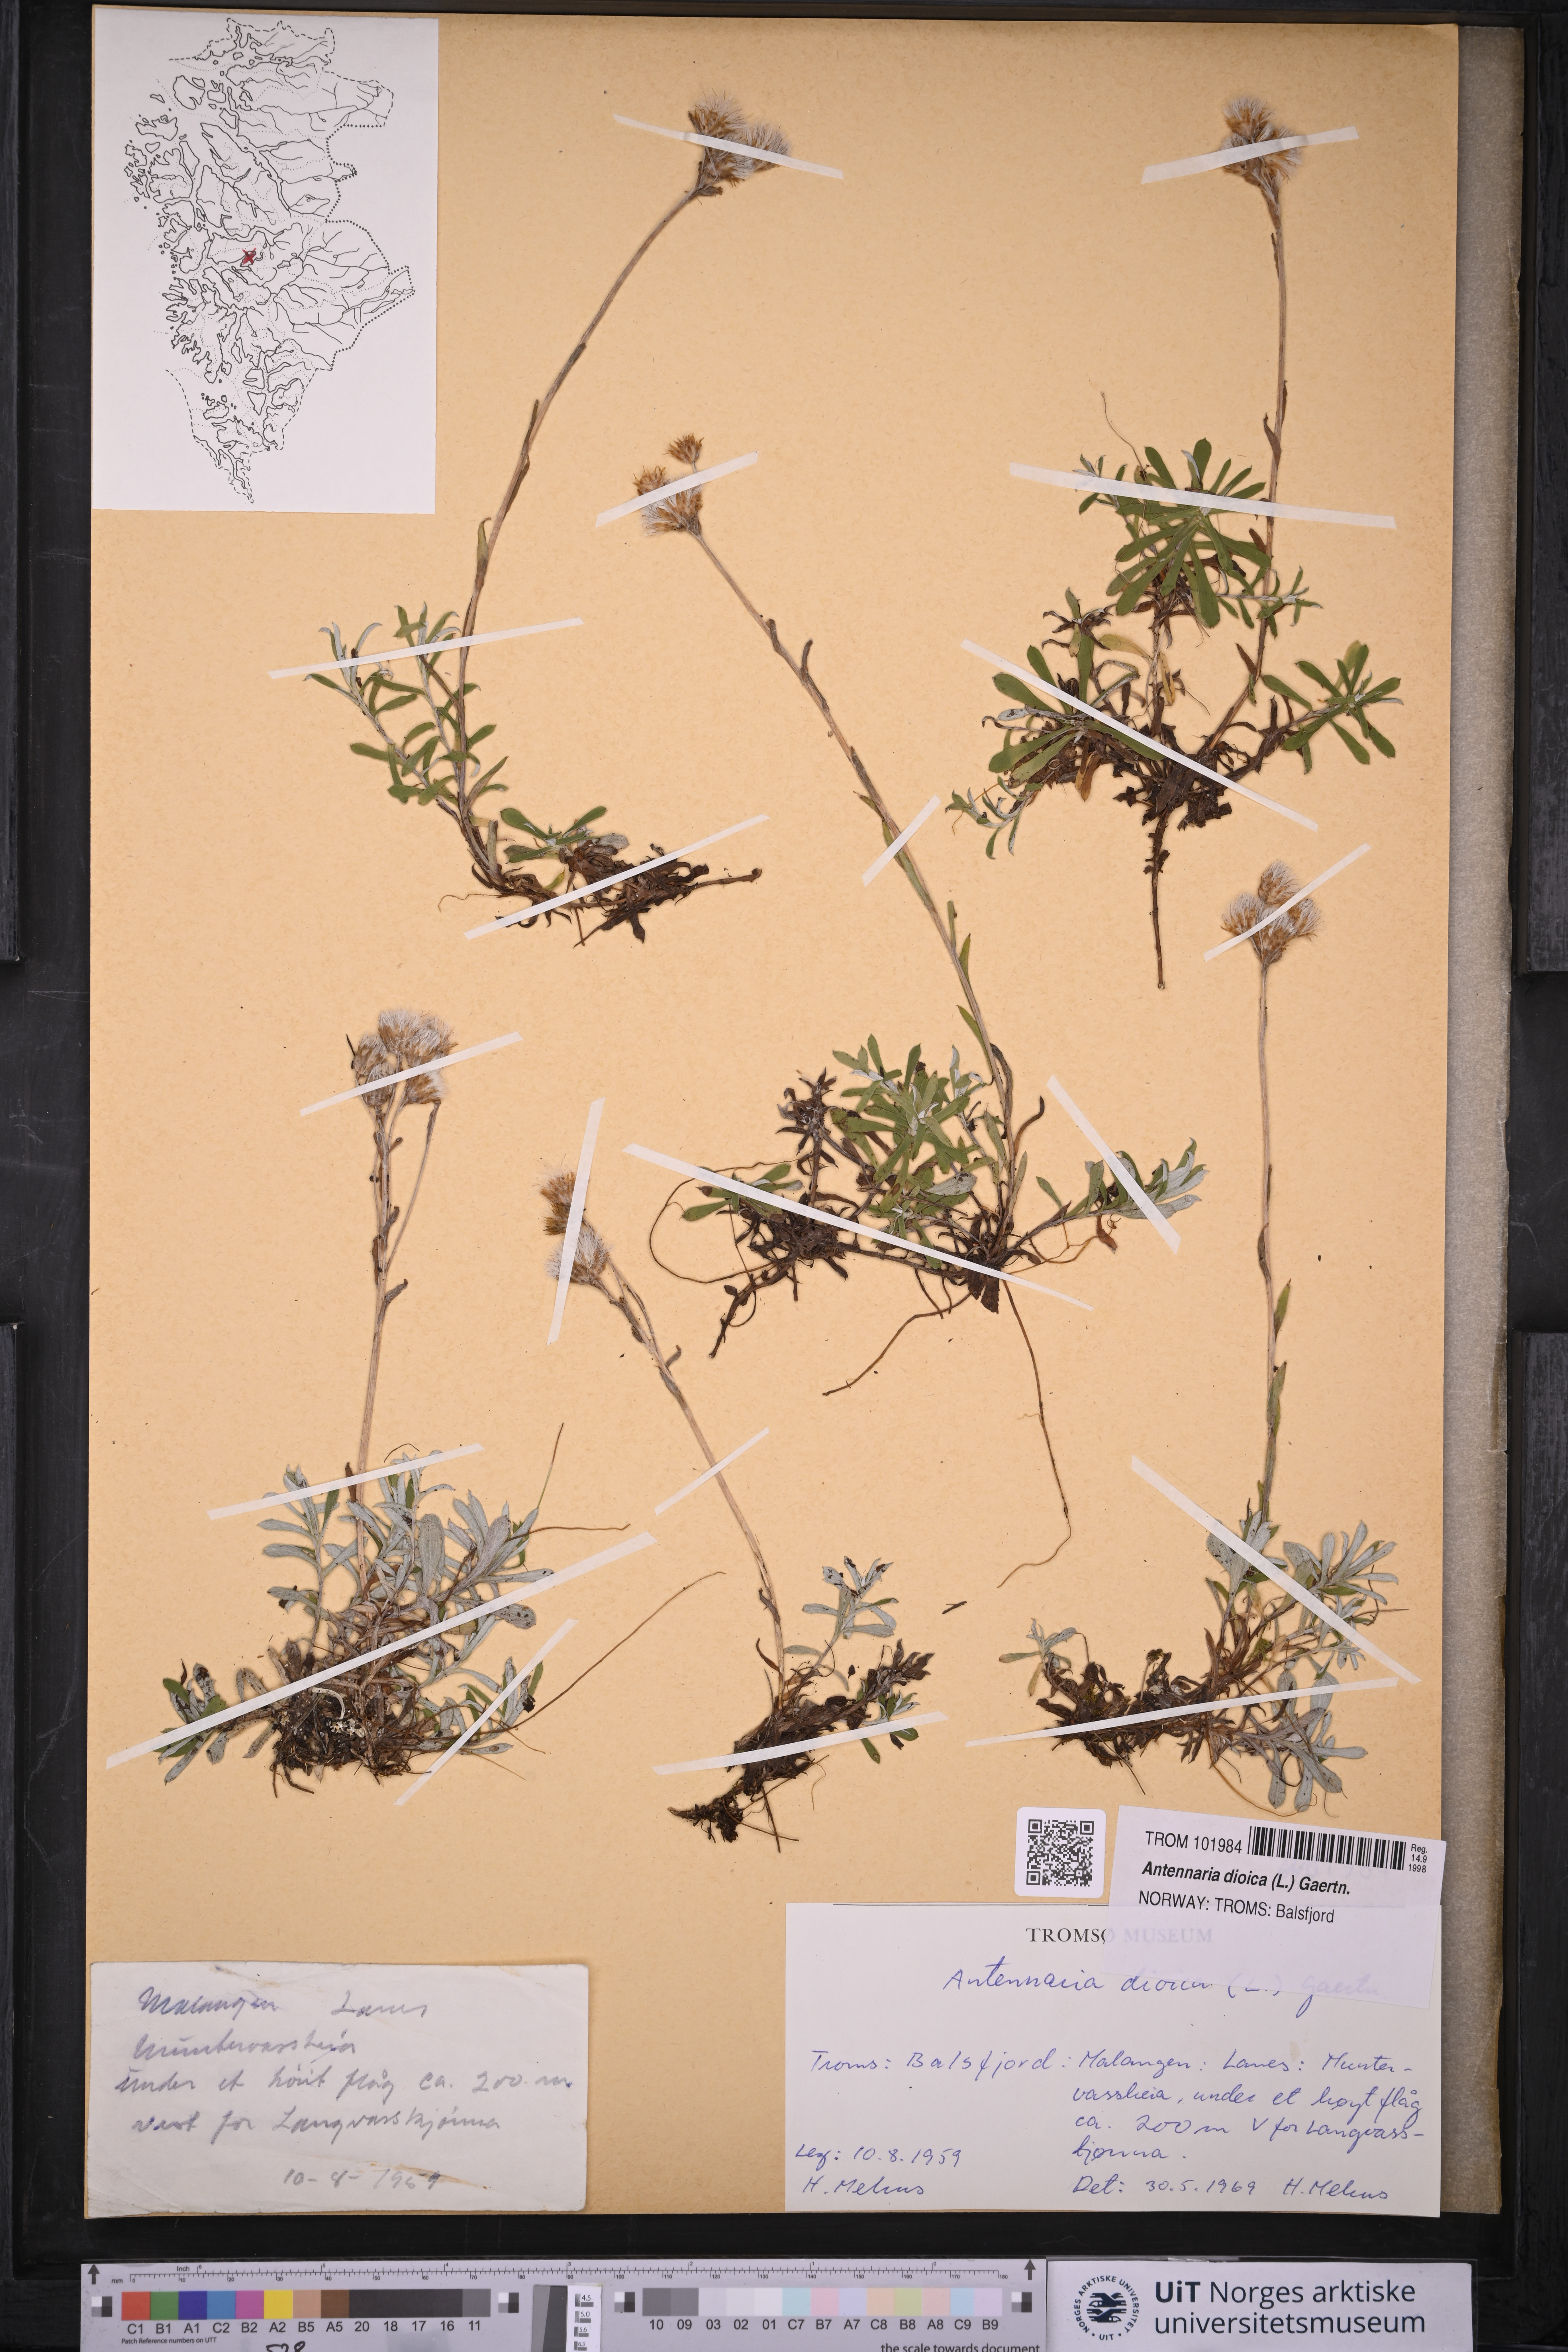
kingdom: Plantae
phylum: Tracheophyta
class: Magnoliopsida
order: Asterales
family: Asteraceae
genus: Antennaria
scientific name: Antennaria dioica
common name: Mountain everlasting
